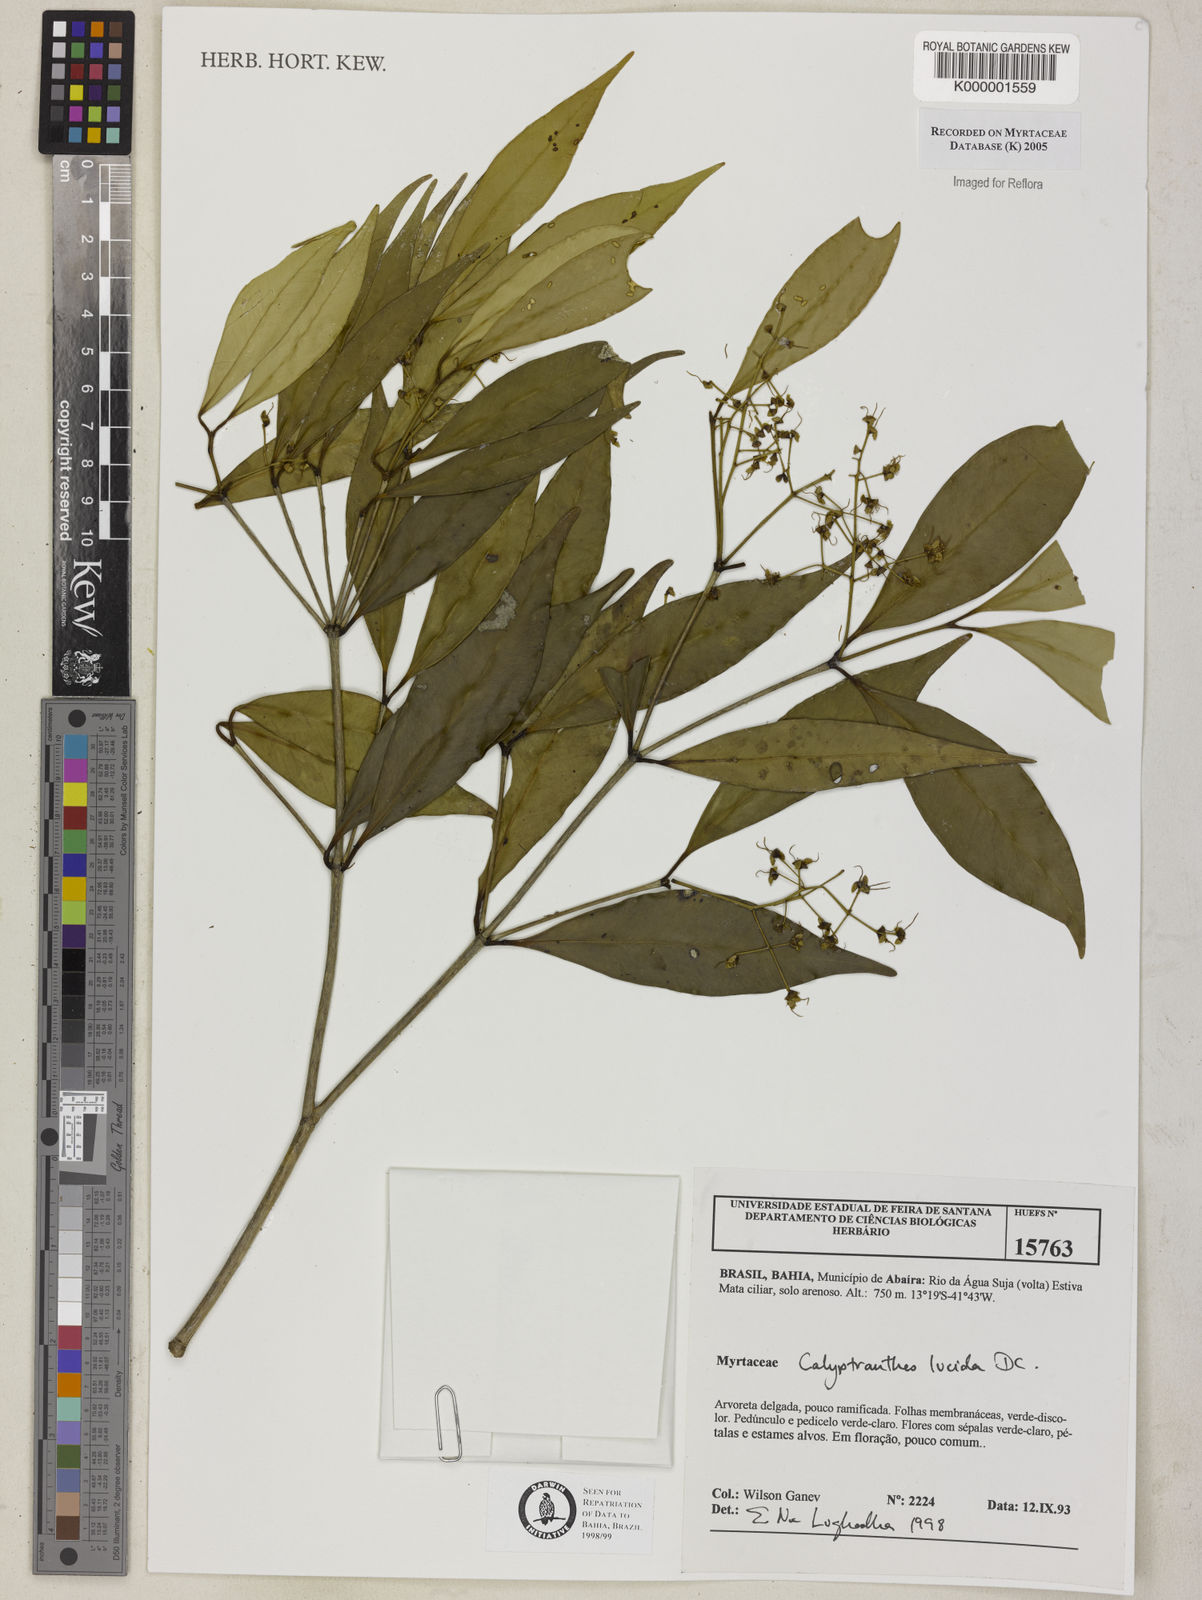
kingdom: Plantae
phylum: Tracheophyta
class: Magnoliopsida
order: Myrtales
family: Myrtaceae
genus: Myrcia
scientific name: Myrcia neolucida
